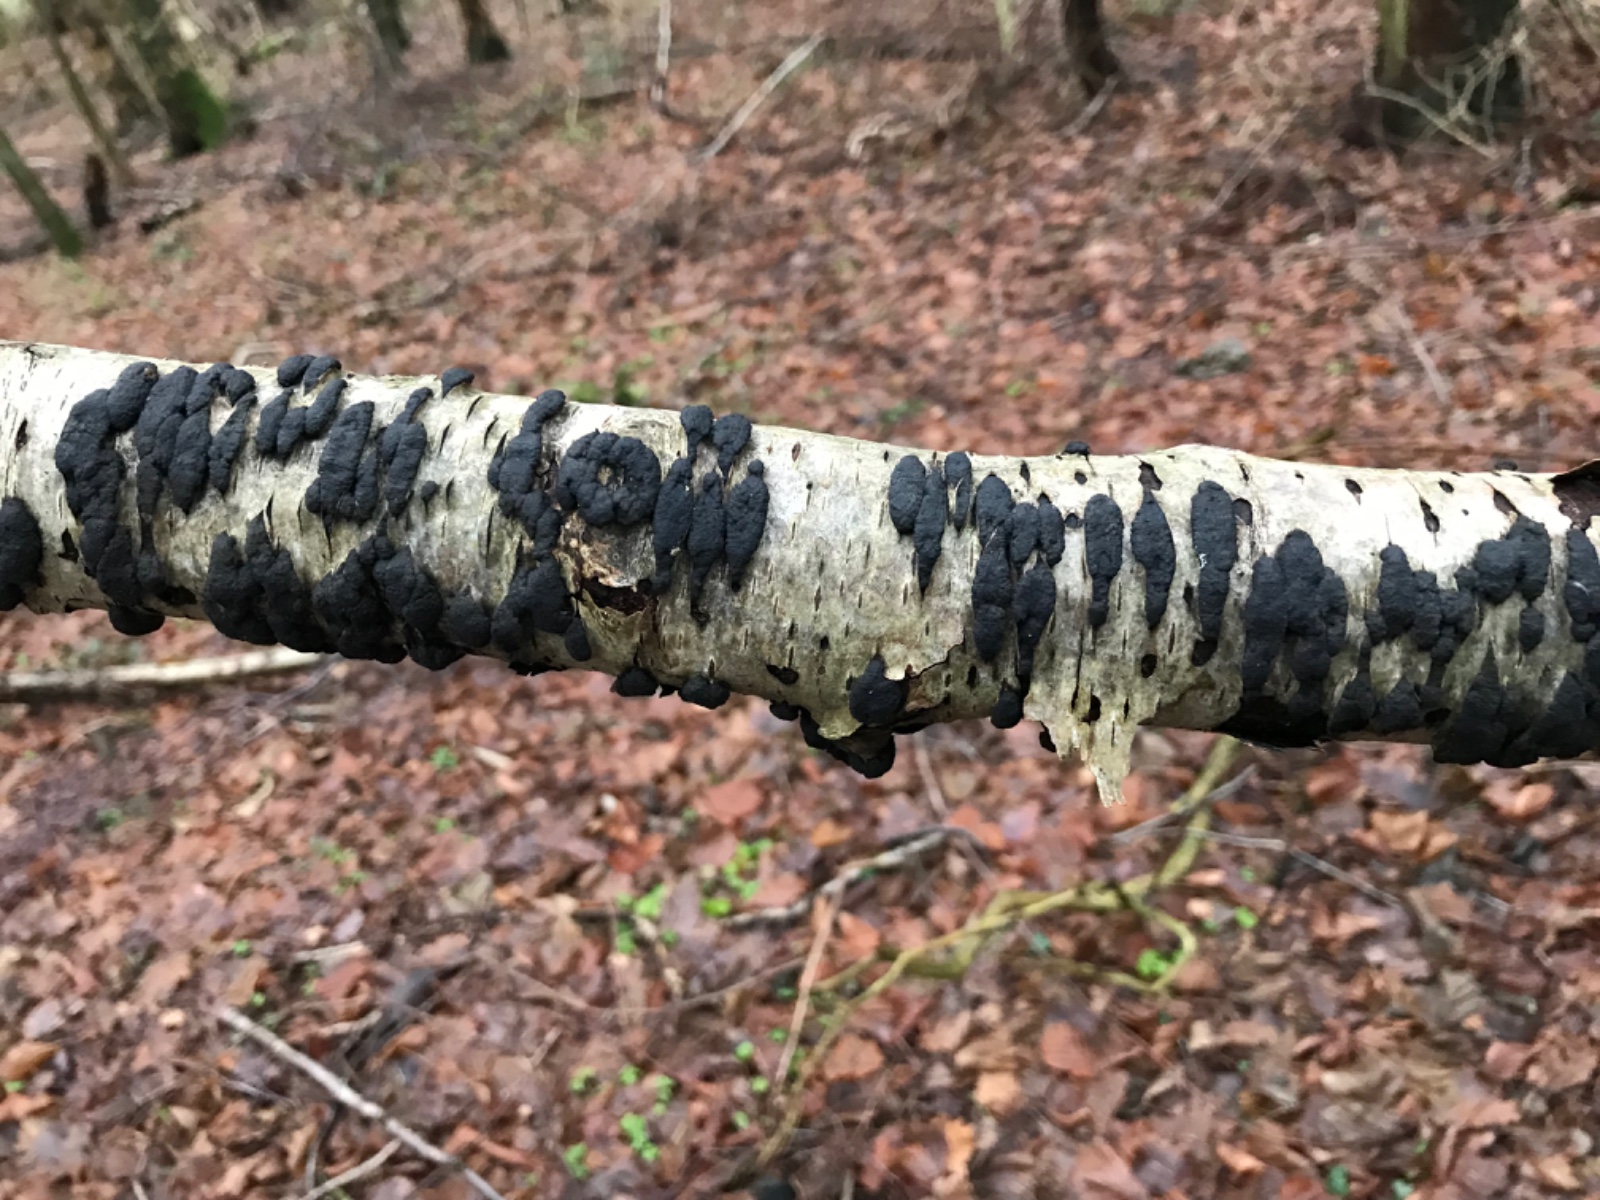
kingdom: Fungi
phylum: Ascomycota
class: Sordariomycetes
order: Xylariales
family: Hypoxylaceae
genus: Jackrogersella
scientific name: Jackrogersella multiformis
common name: foranderlig kulbær
